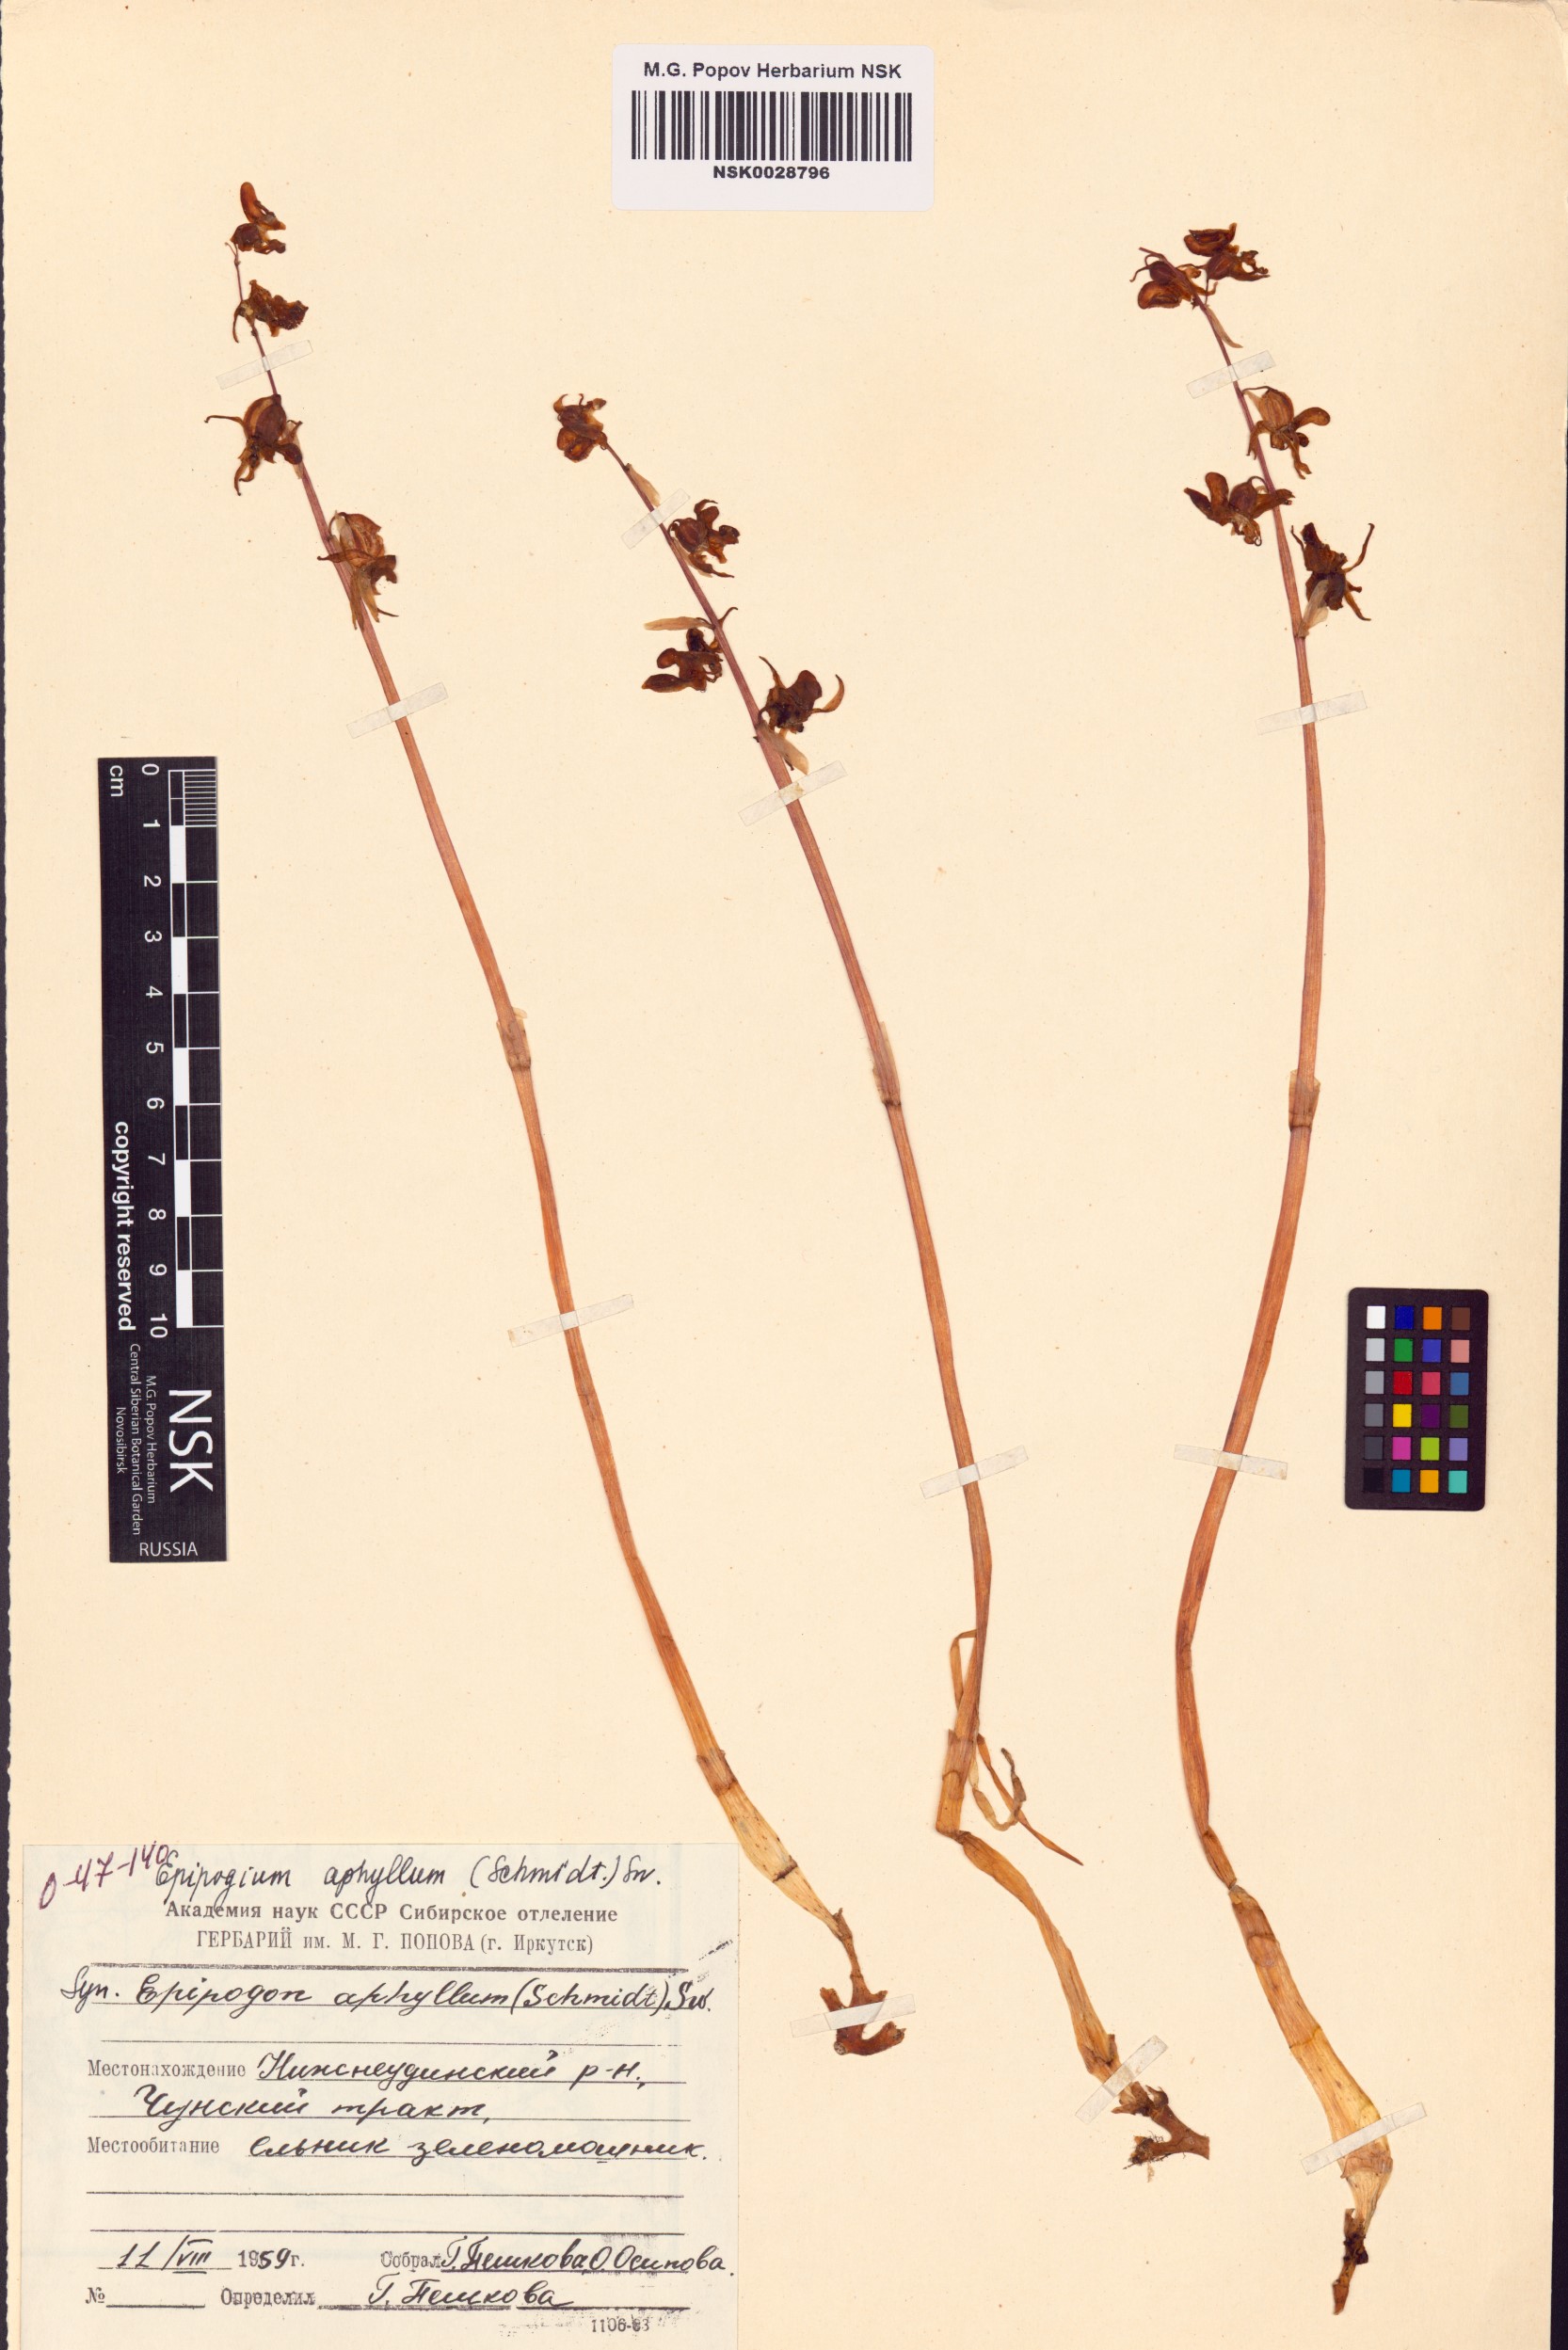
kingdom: Plantae
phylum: Tracheophyta
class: Liliopsida
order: Asparagales
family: Orchidaceae
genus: Epipogium
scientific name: Epipogium aphyllum
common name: Ghost orchid
